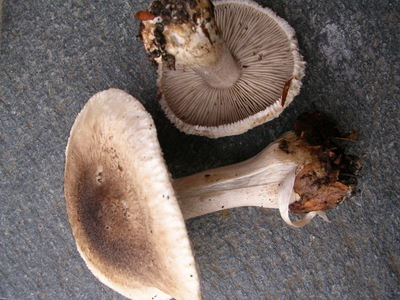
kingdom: Fungi
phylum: Basidiomycota
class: Agaricomycetes
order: Agaricales
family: Tricholomataceae
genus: Tricholoma
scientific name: Tricholoma atrosquamosum
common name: sortskællet ridderhat
